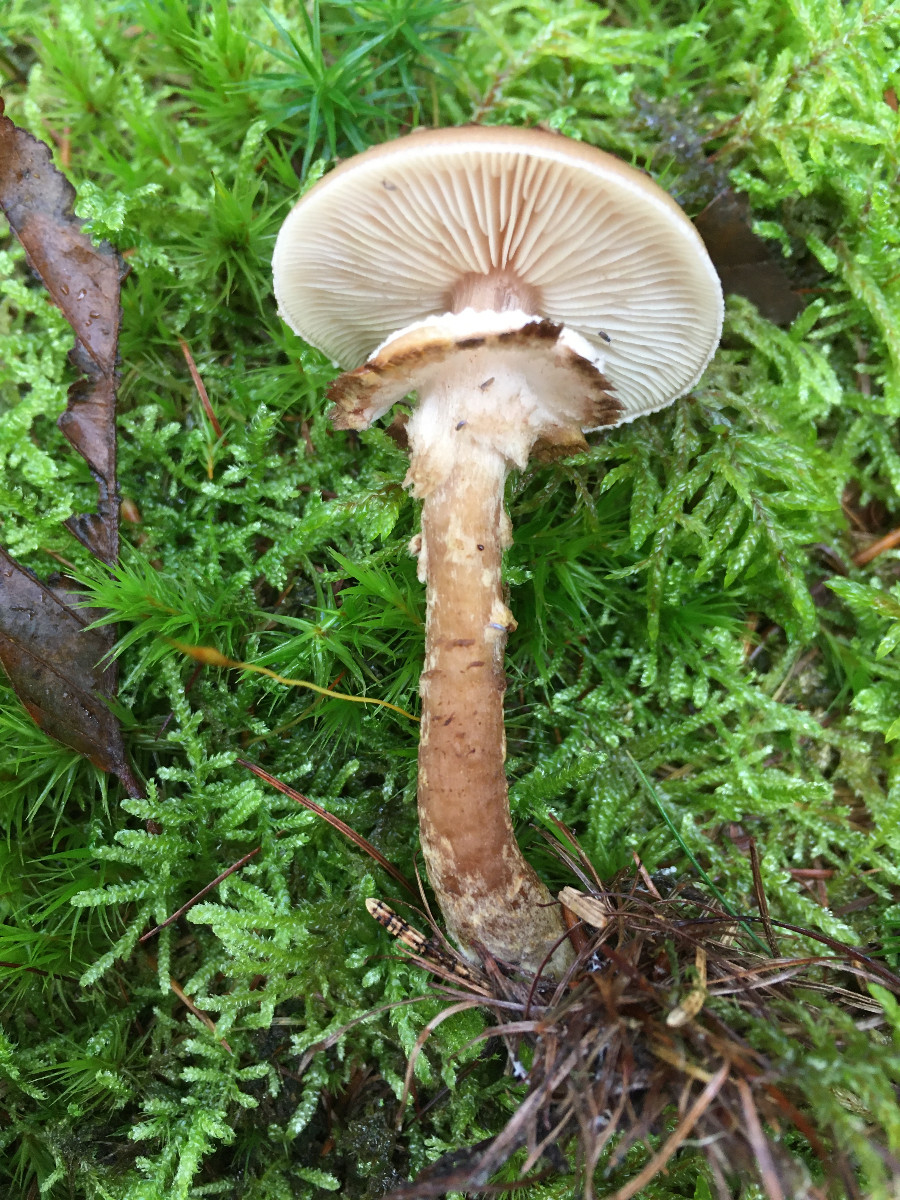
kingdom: Fungi
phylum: Basidiomycota
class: Agaricomycetes
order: Agaricales
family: Physalacriaceae
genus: Armillaria
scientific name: Armillaria ostoyae
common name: mørk honningsvamp
